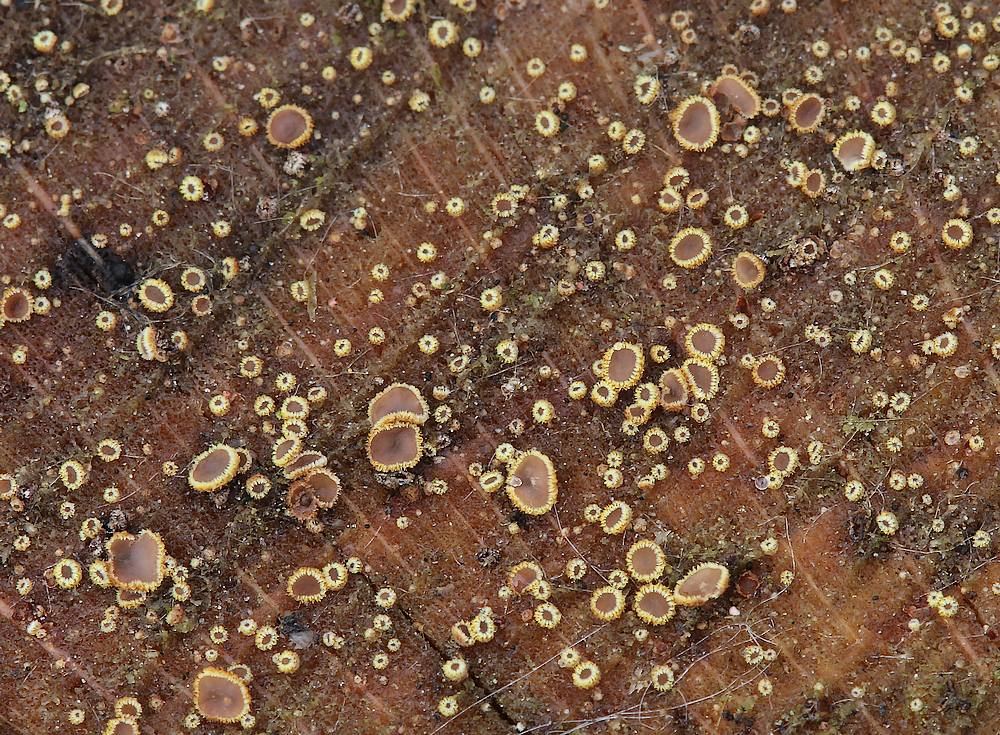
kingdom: Fungi
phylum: Ascomycota
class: Leotiomycetes
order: Helotiales
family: Lachnaceae
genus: Trichopeziza
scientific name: Trichopeziza subsulphurea
